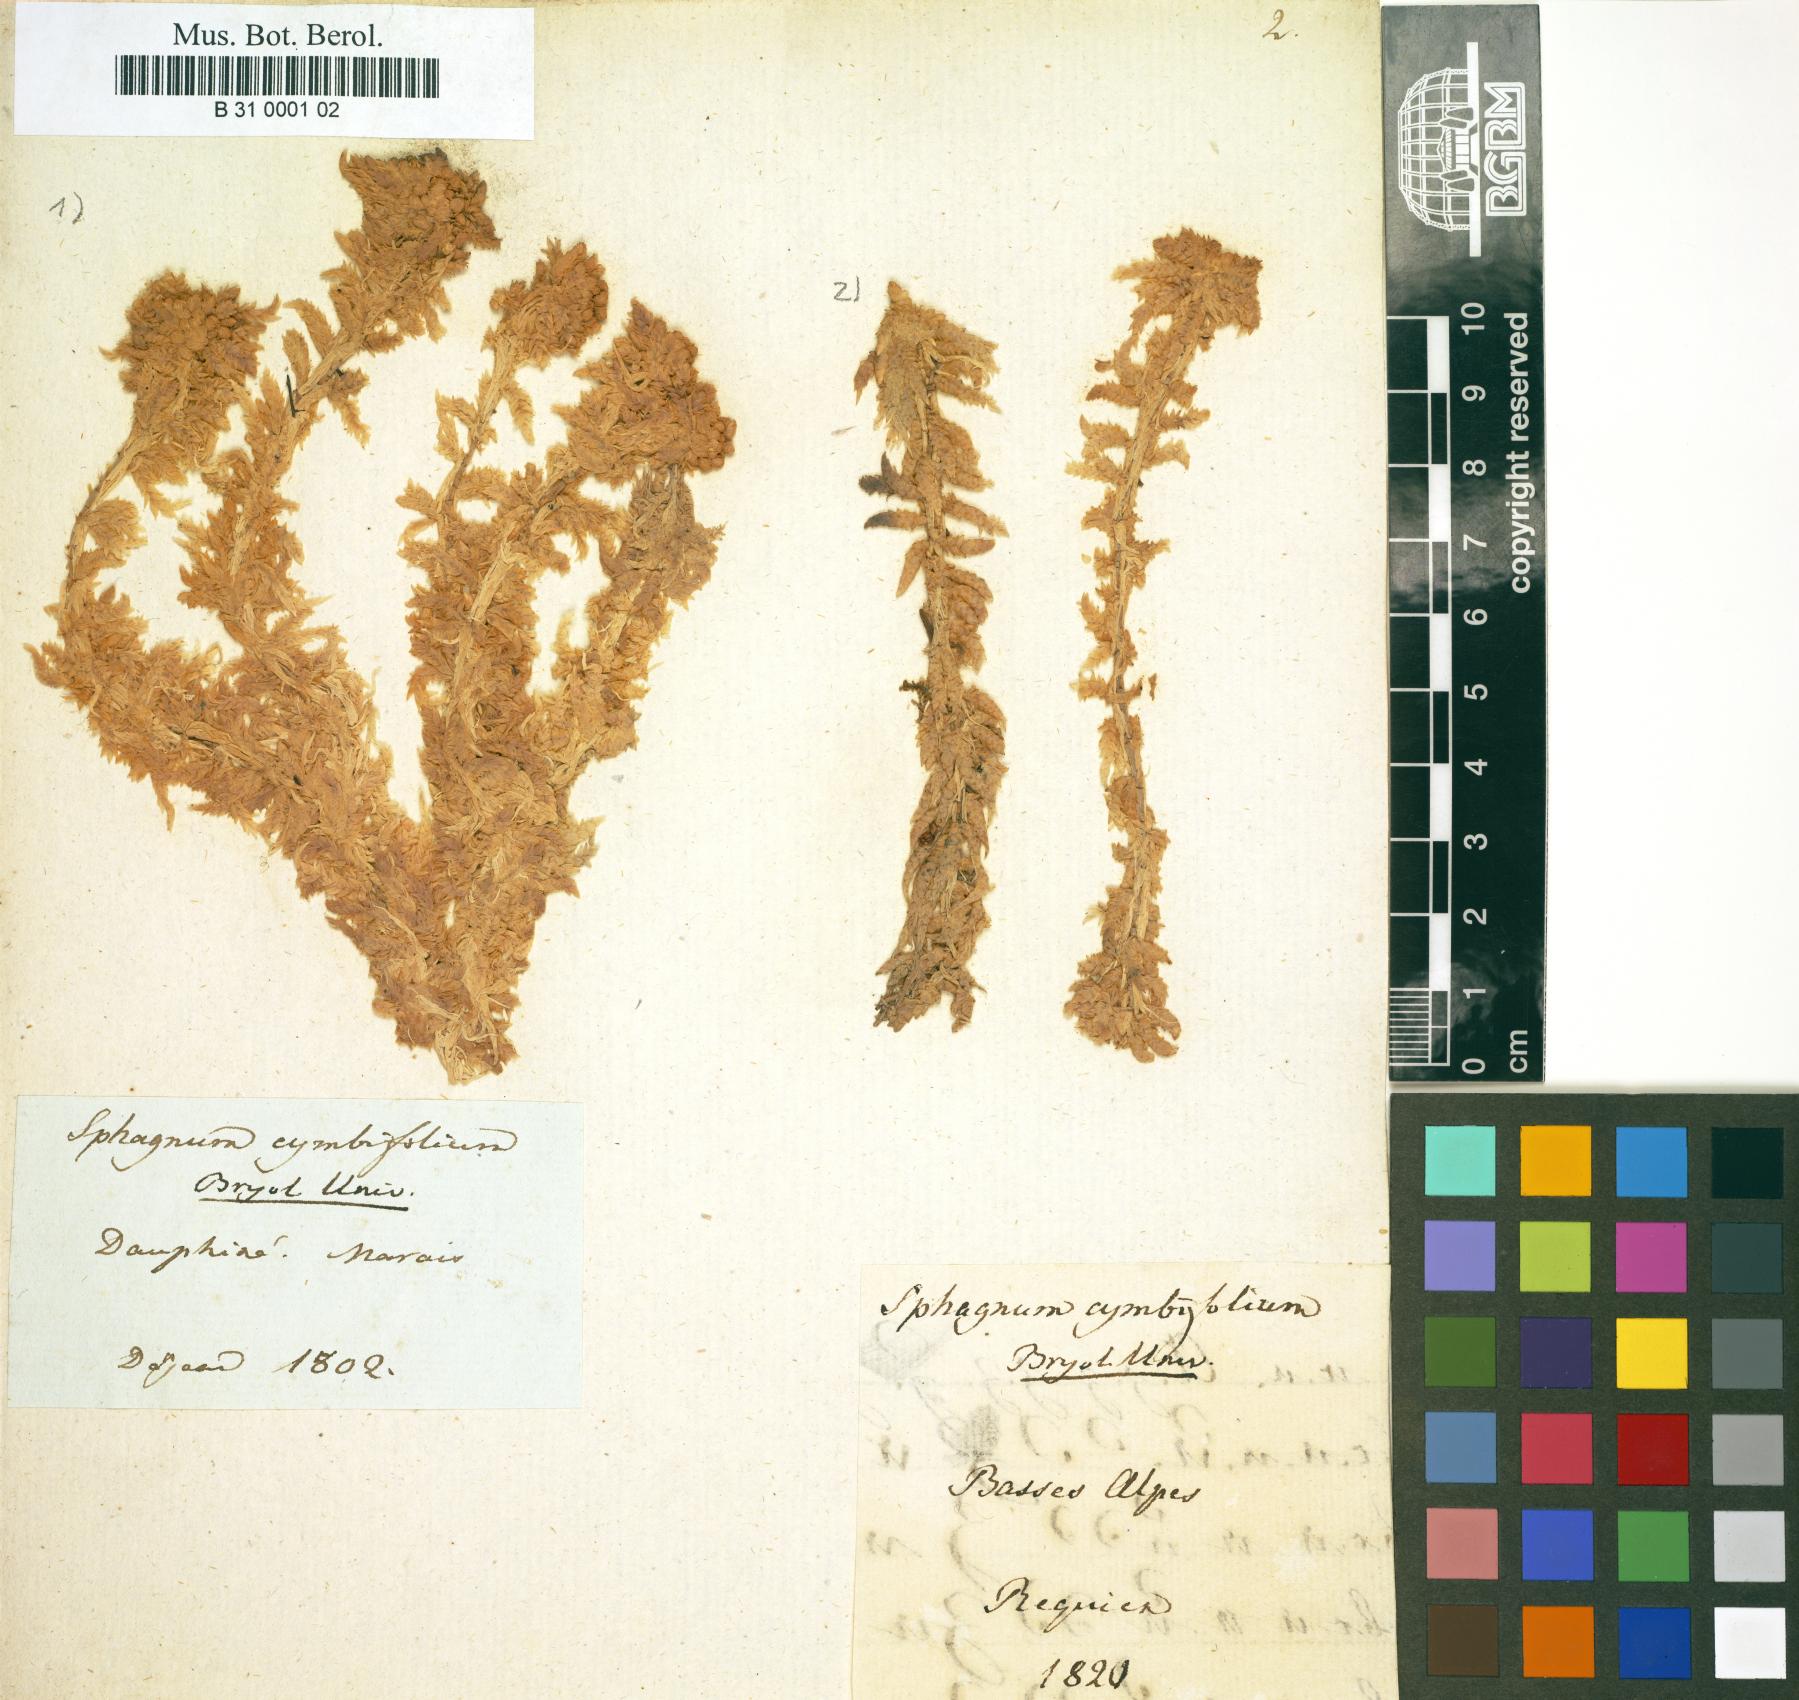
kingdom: Plantae
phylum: Bryophyta
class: Sphagnopsida
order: Sphagnales
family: Sphagnaceae
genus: Sphagnum
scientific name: Sphagnum palustre
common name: Blunt-leaved bog-moss
